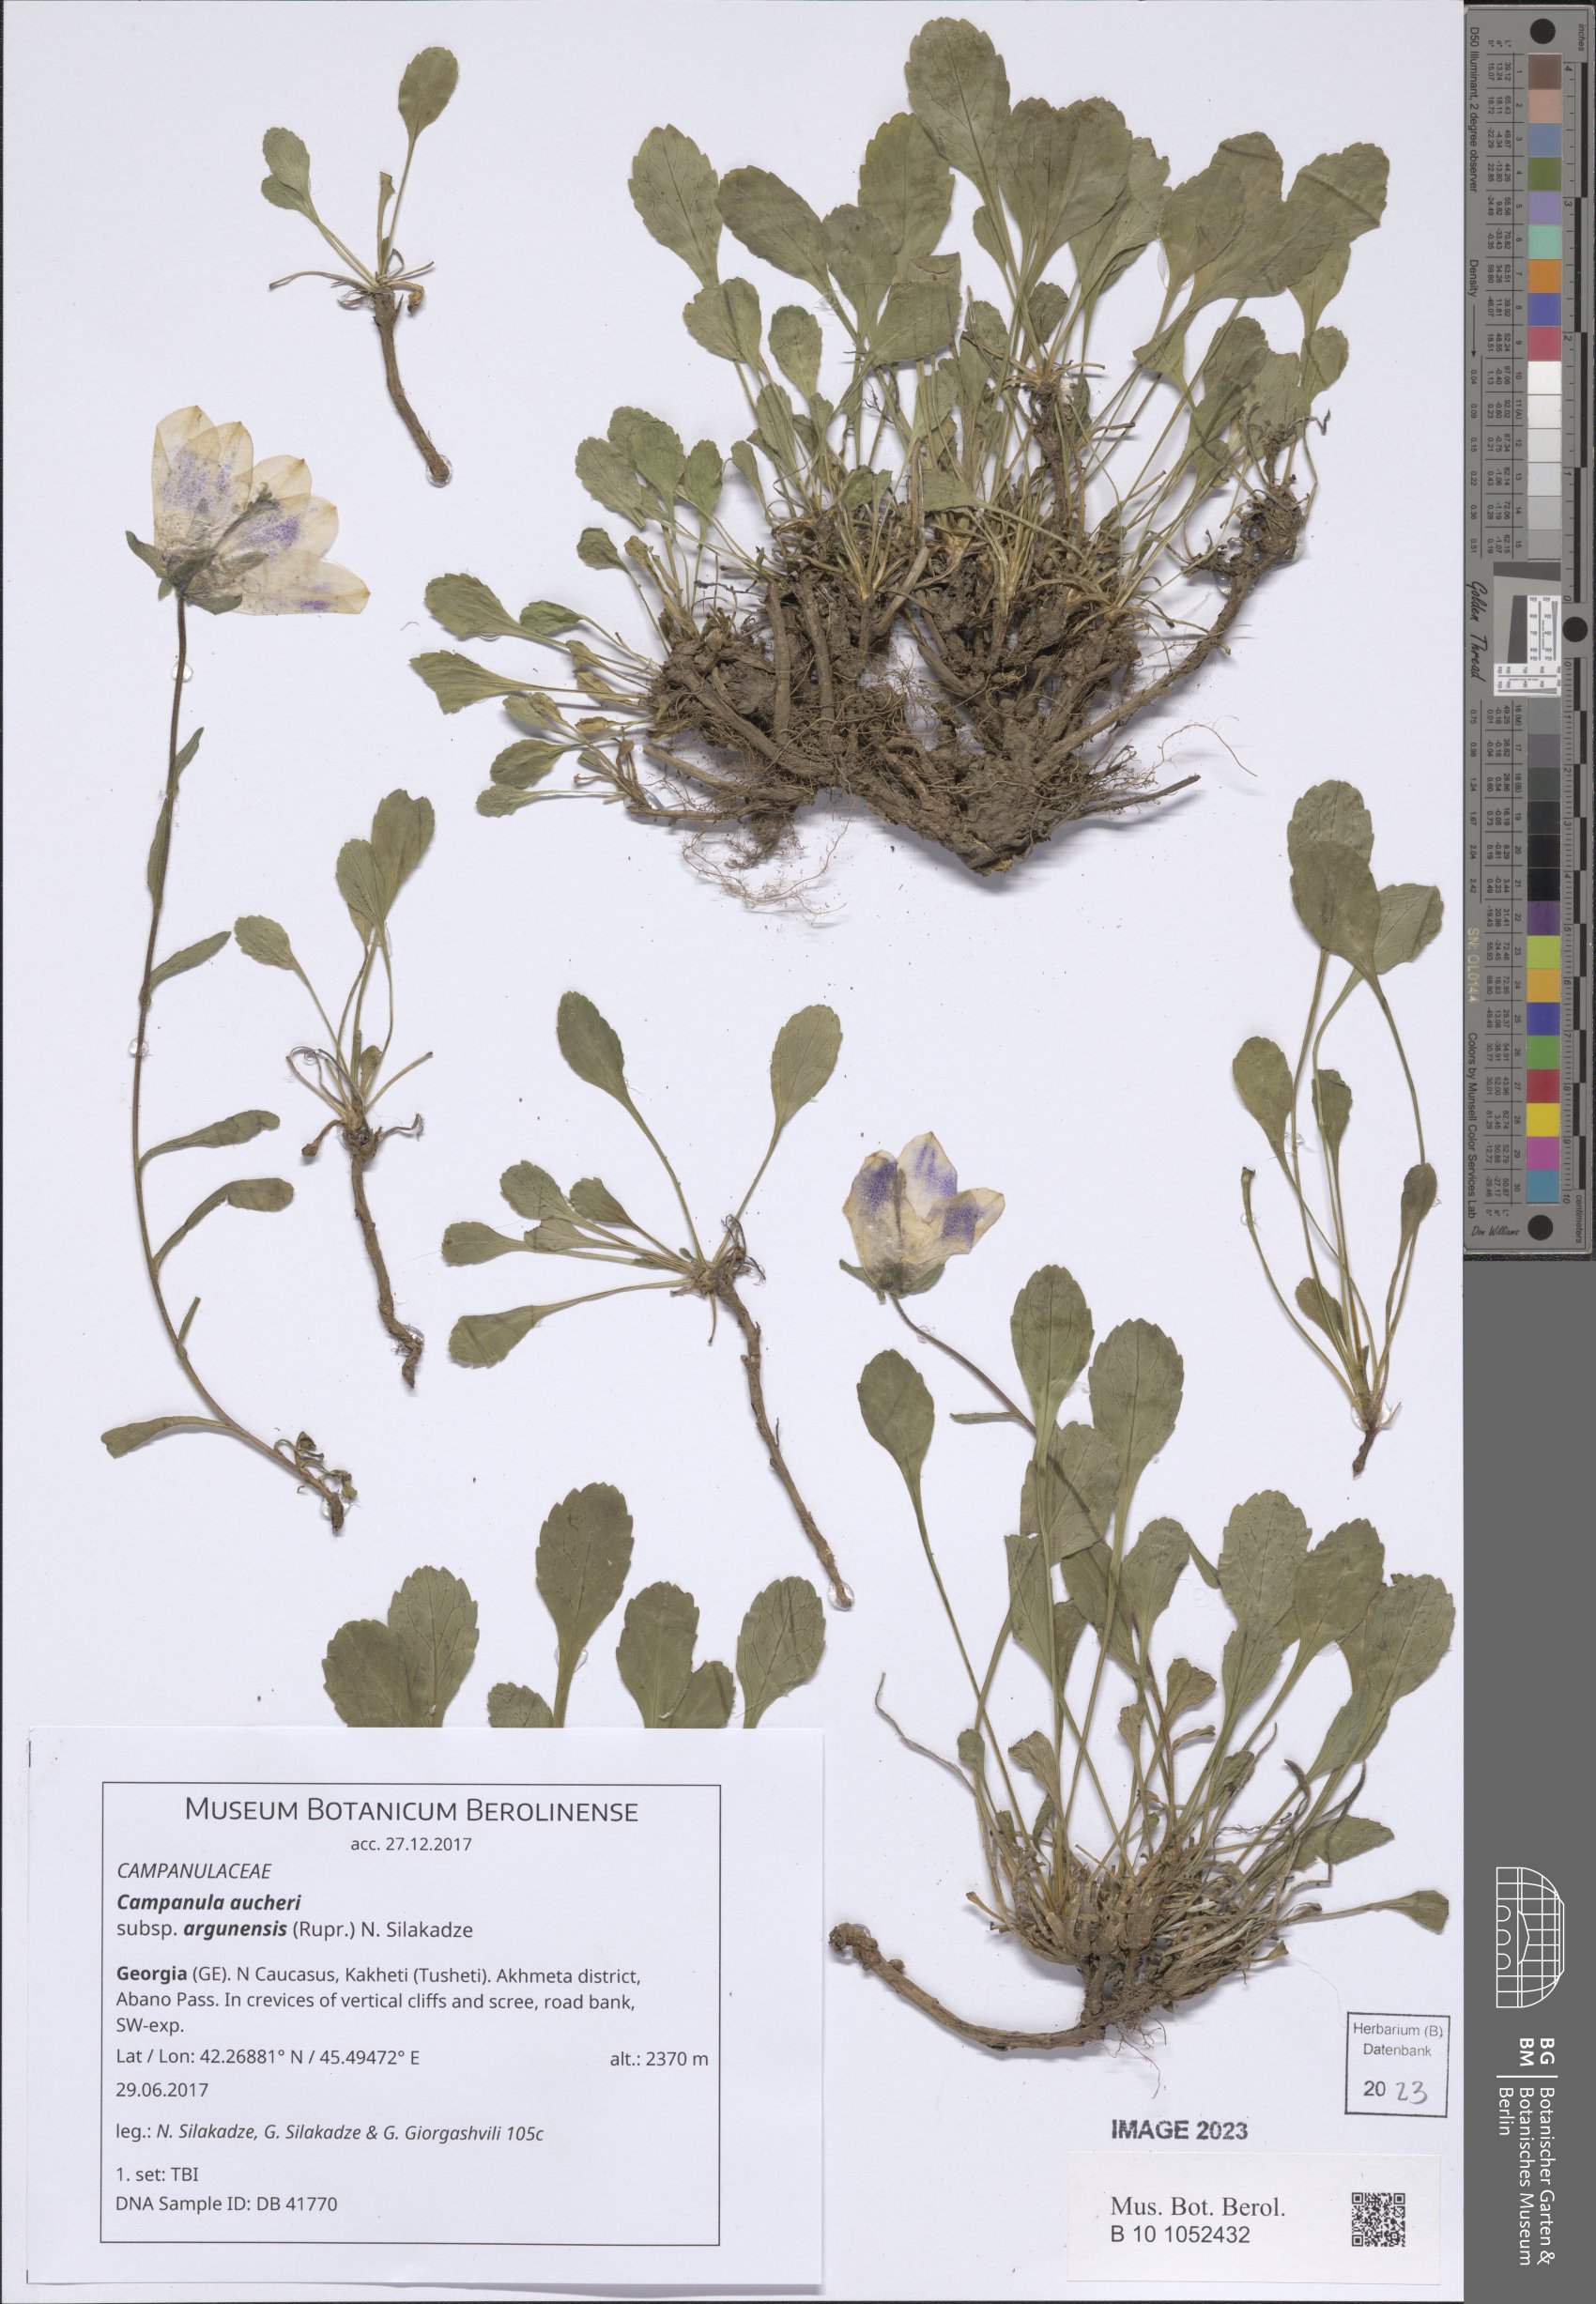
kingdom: Plantae
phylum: Tracheophyta
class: Magnoliopsida
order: Asterales
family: Campanulaceae
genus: Campanula
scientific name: Campanula saxifraga
